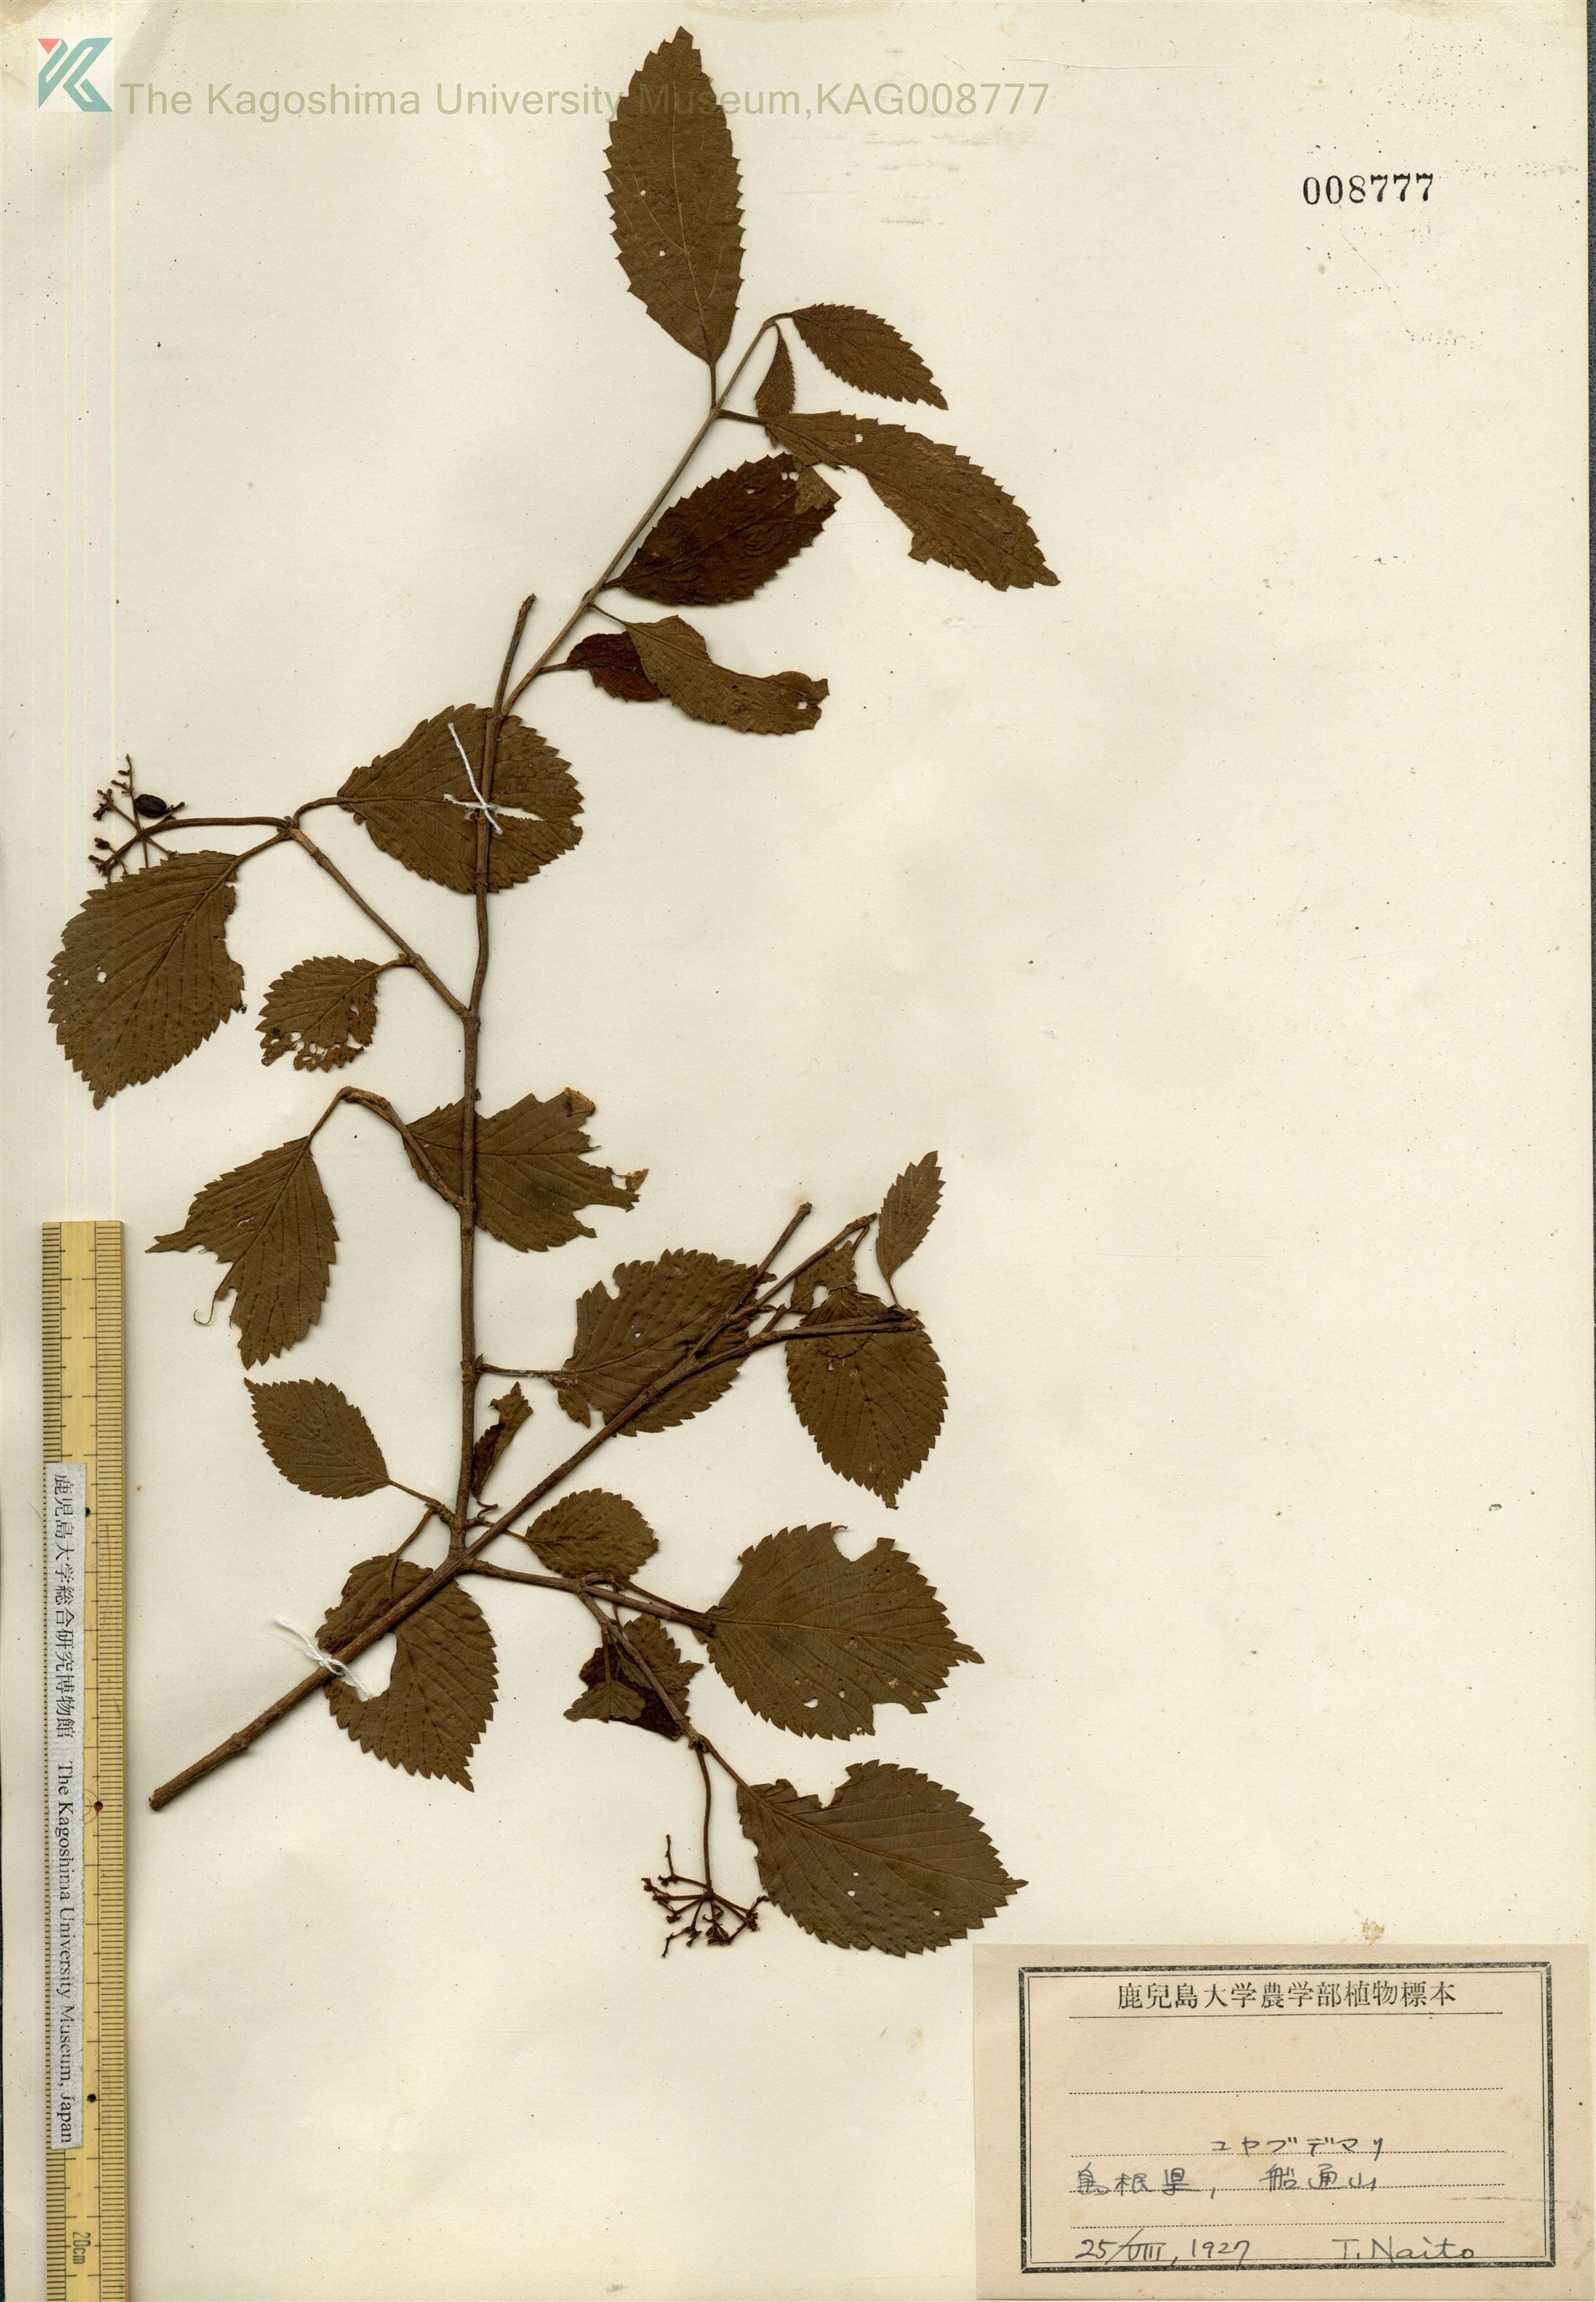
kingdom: Plantae
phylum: Tracheophyta
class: Magnoliopsida
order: Dipsacales
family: Viburnaceae
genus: Viburnum
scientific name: Viburnum plicatum
